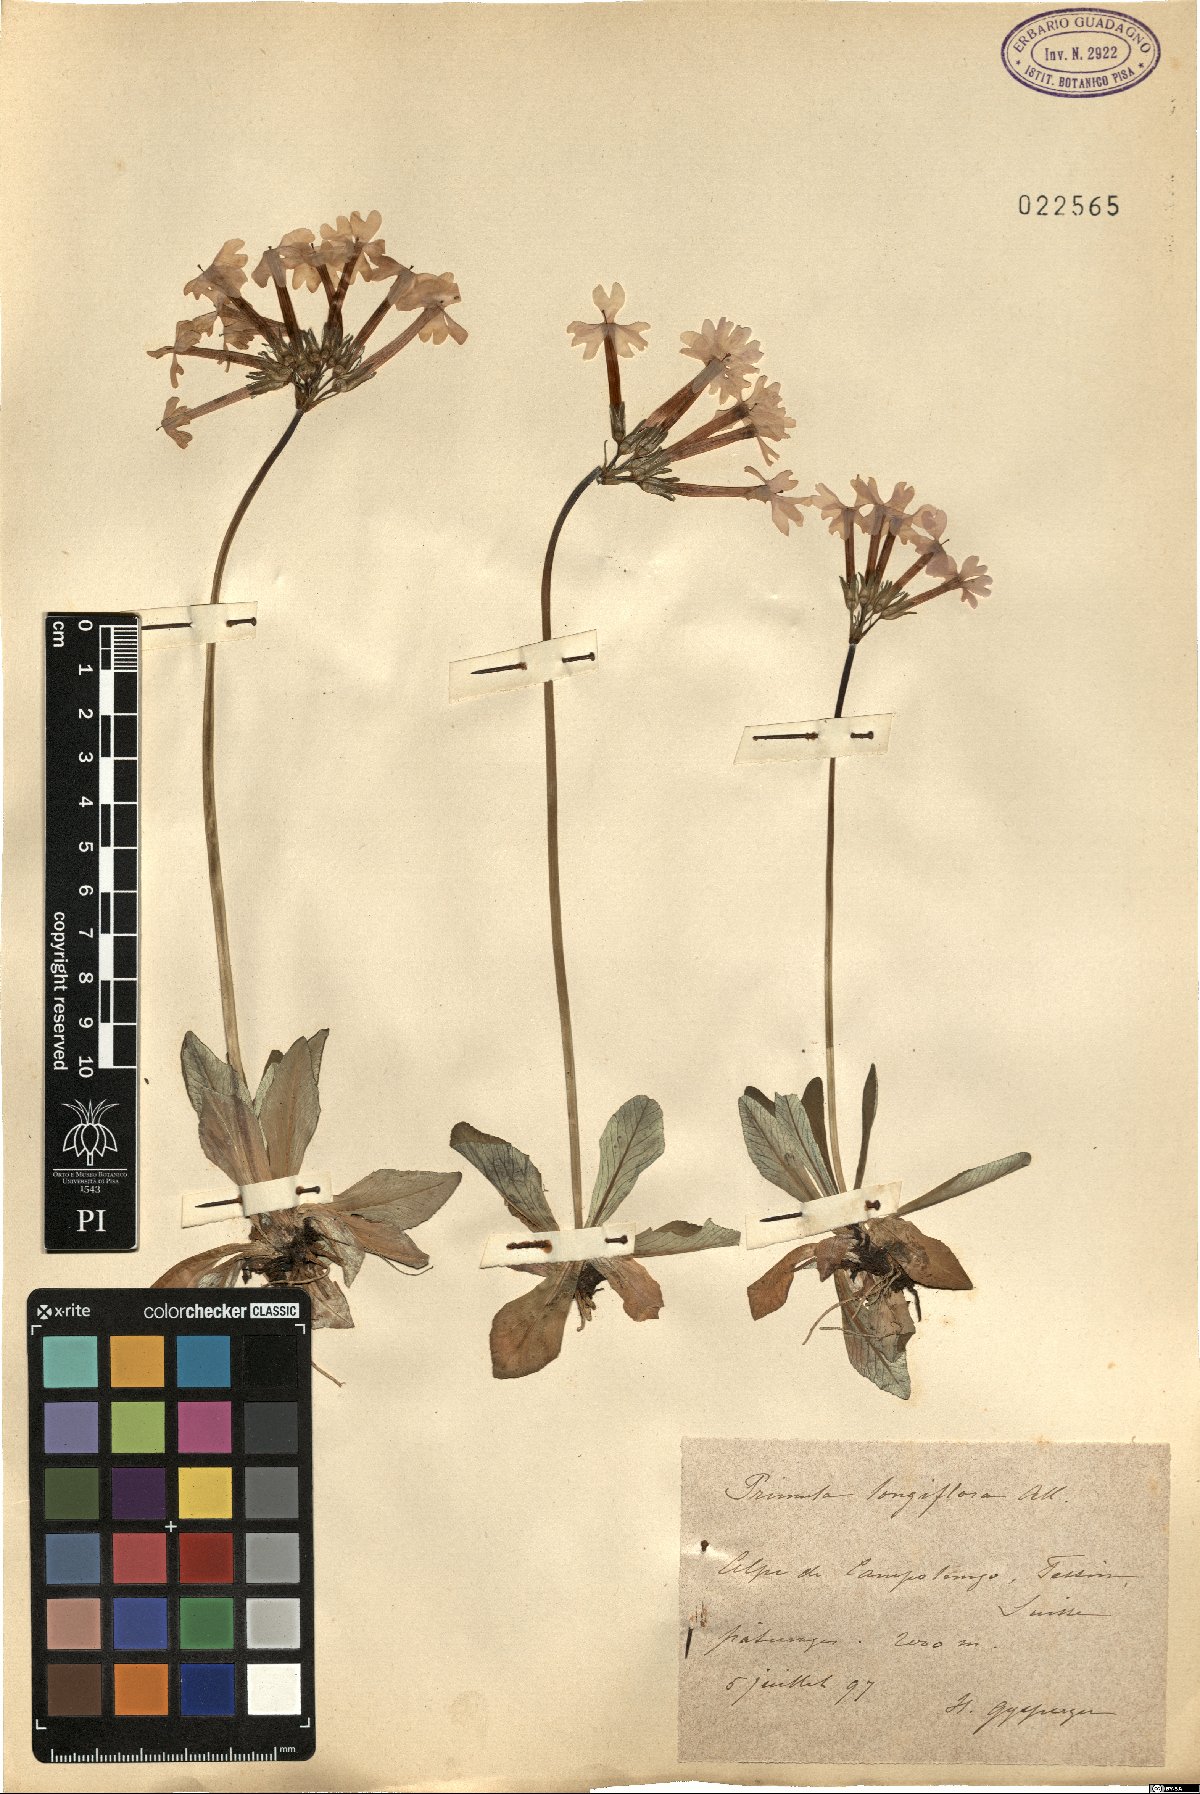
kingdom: Plantae
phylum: Tracheophyta
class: Magnoliopsida
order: Ericales
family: Primulaceae
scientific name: Primulaceae
